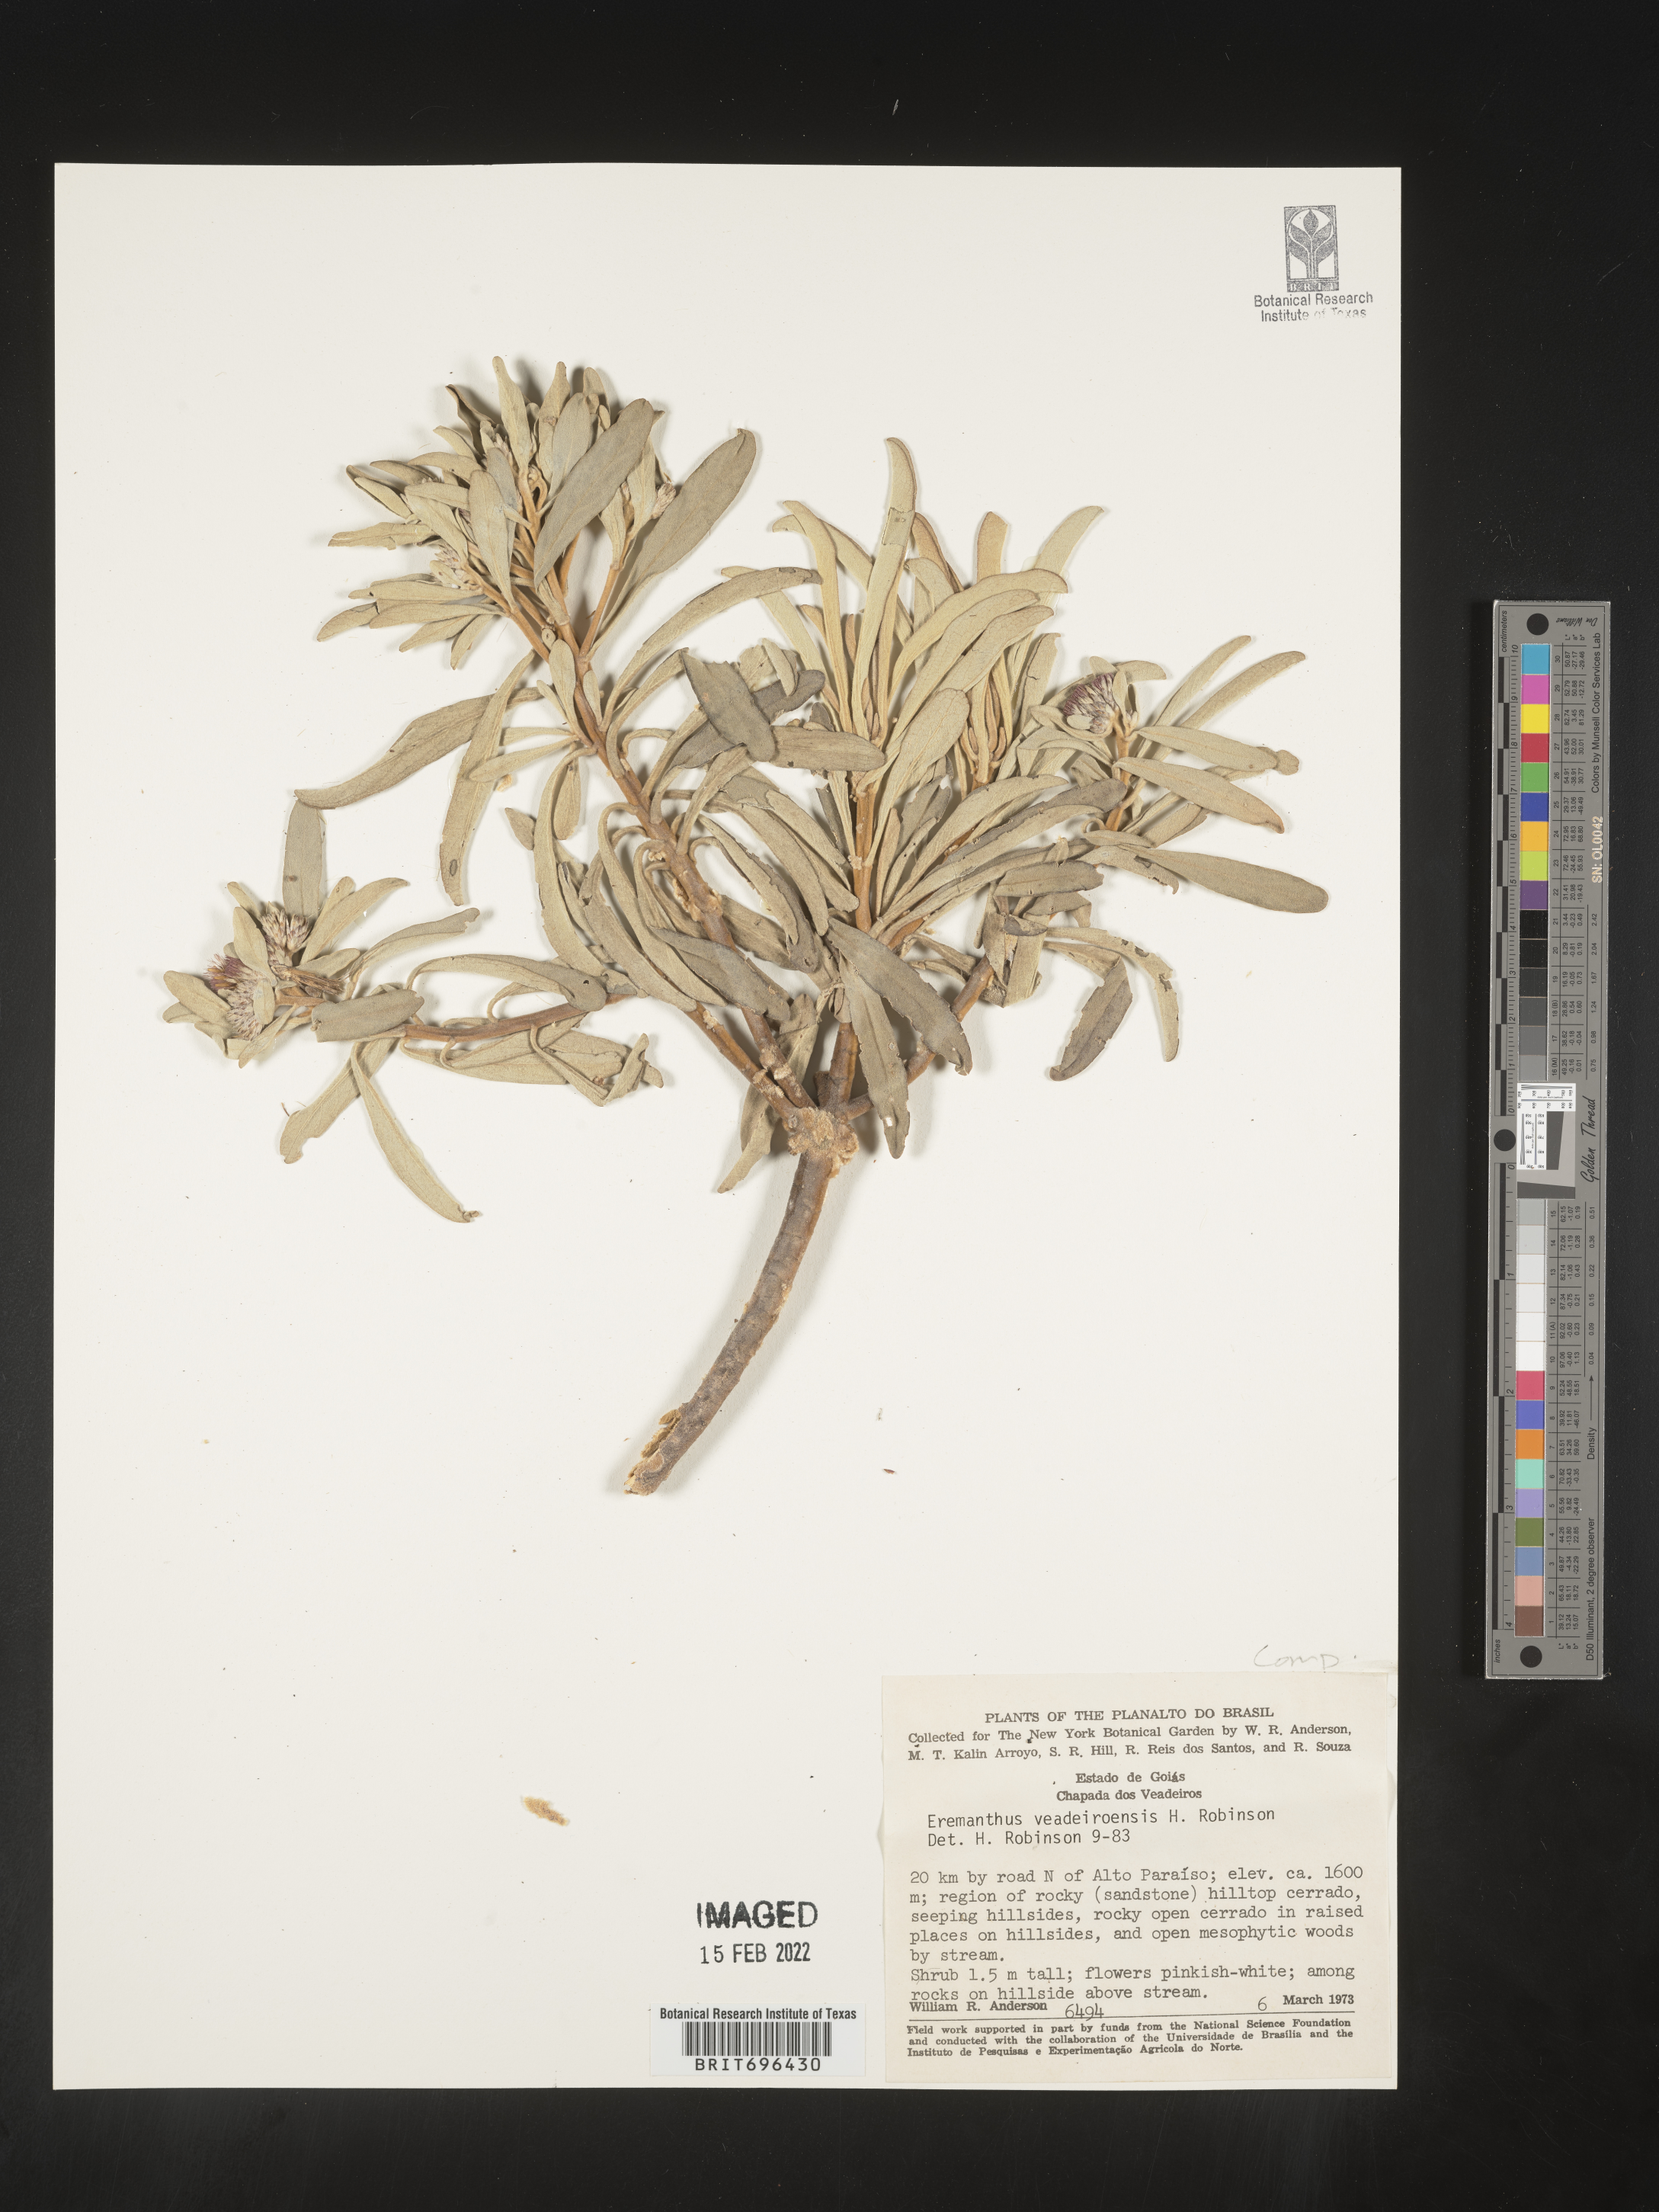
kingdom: Plantae
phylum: Tracheophyta
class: Magnoliopsida
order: Asterales
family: Asteraceae
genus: Eremanthus
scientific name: Eremanthus
